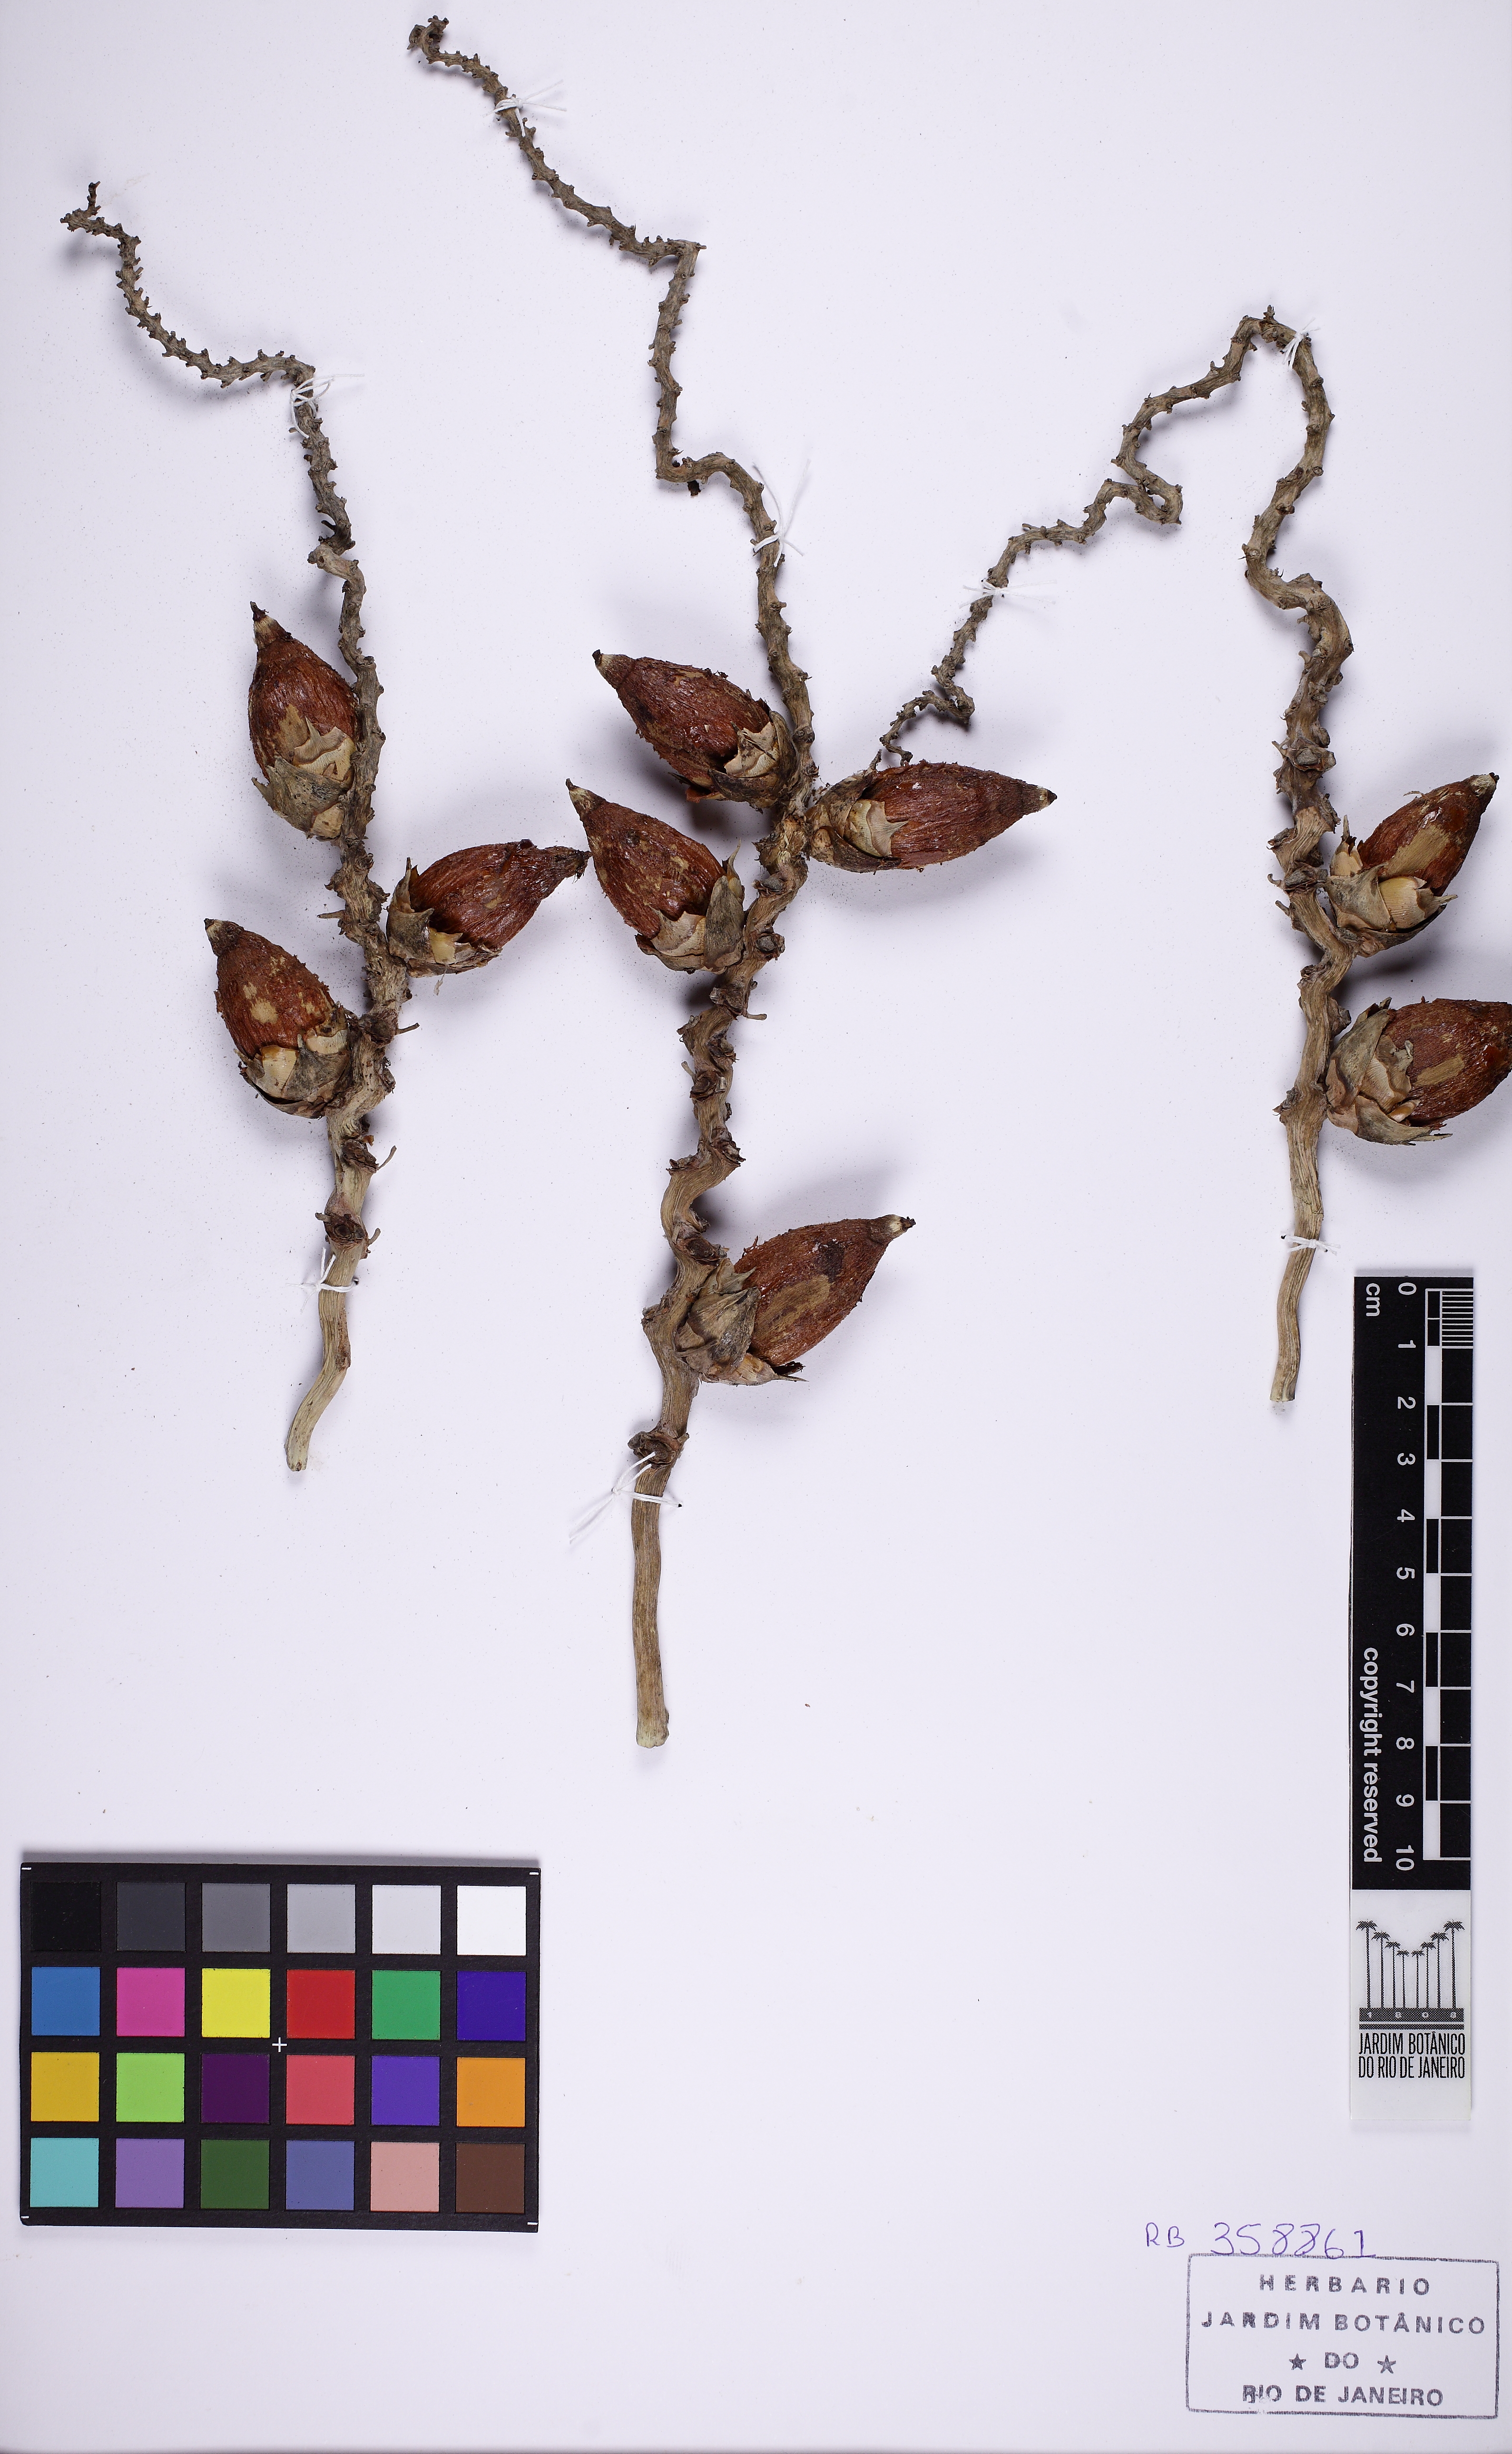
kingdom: Plantae
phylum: Tracheophyta
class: Liliopsida
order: Arecales
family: Arecaceae
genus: Syagrus
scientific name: Syagrus
